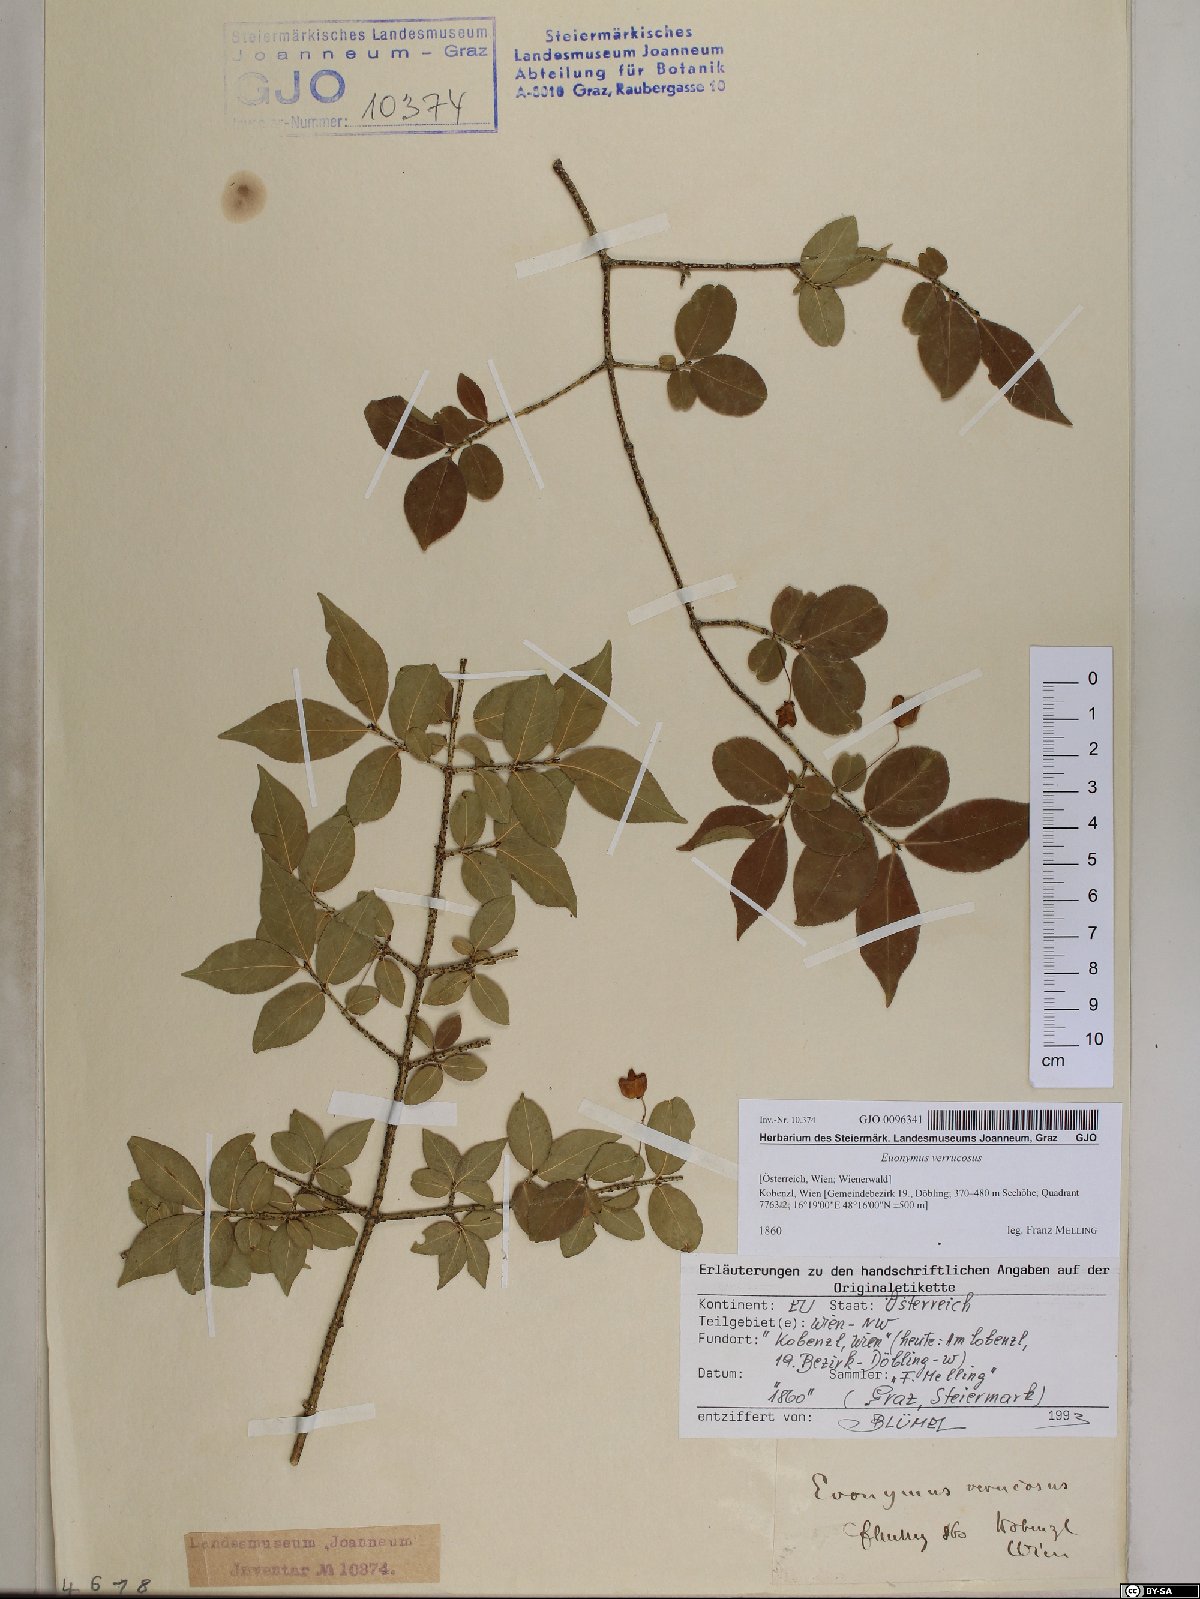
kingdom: Plantae
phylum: Tracheophyta
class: Magnoliopsida
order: Celastrales
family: Celastraceae
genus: Euonymus
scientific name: Euonymus verrucosus
